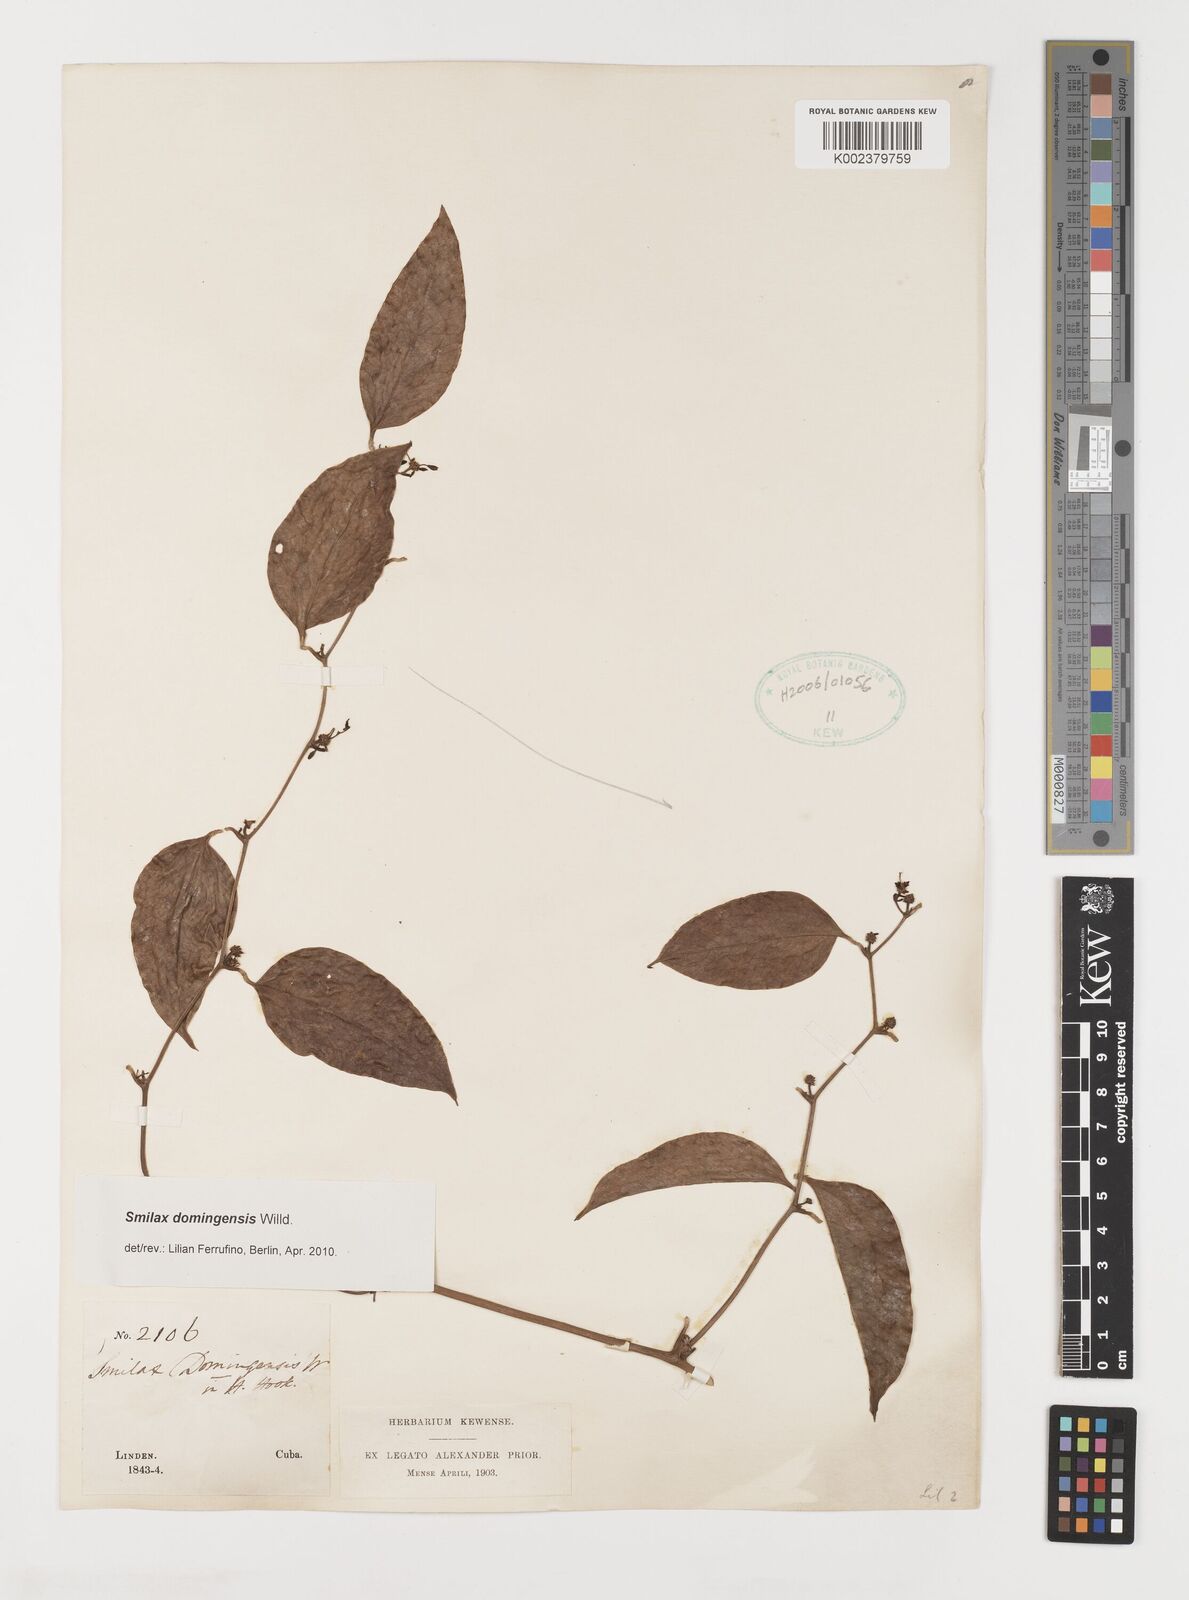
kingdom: Plantae
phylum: Tracheophyta
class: Liliopsida
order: Liliales
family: Smilacaceae
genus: Smilax
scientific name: Smilax domingensis
